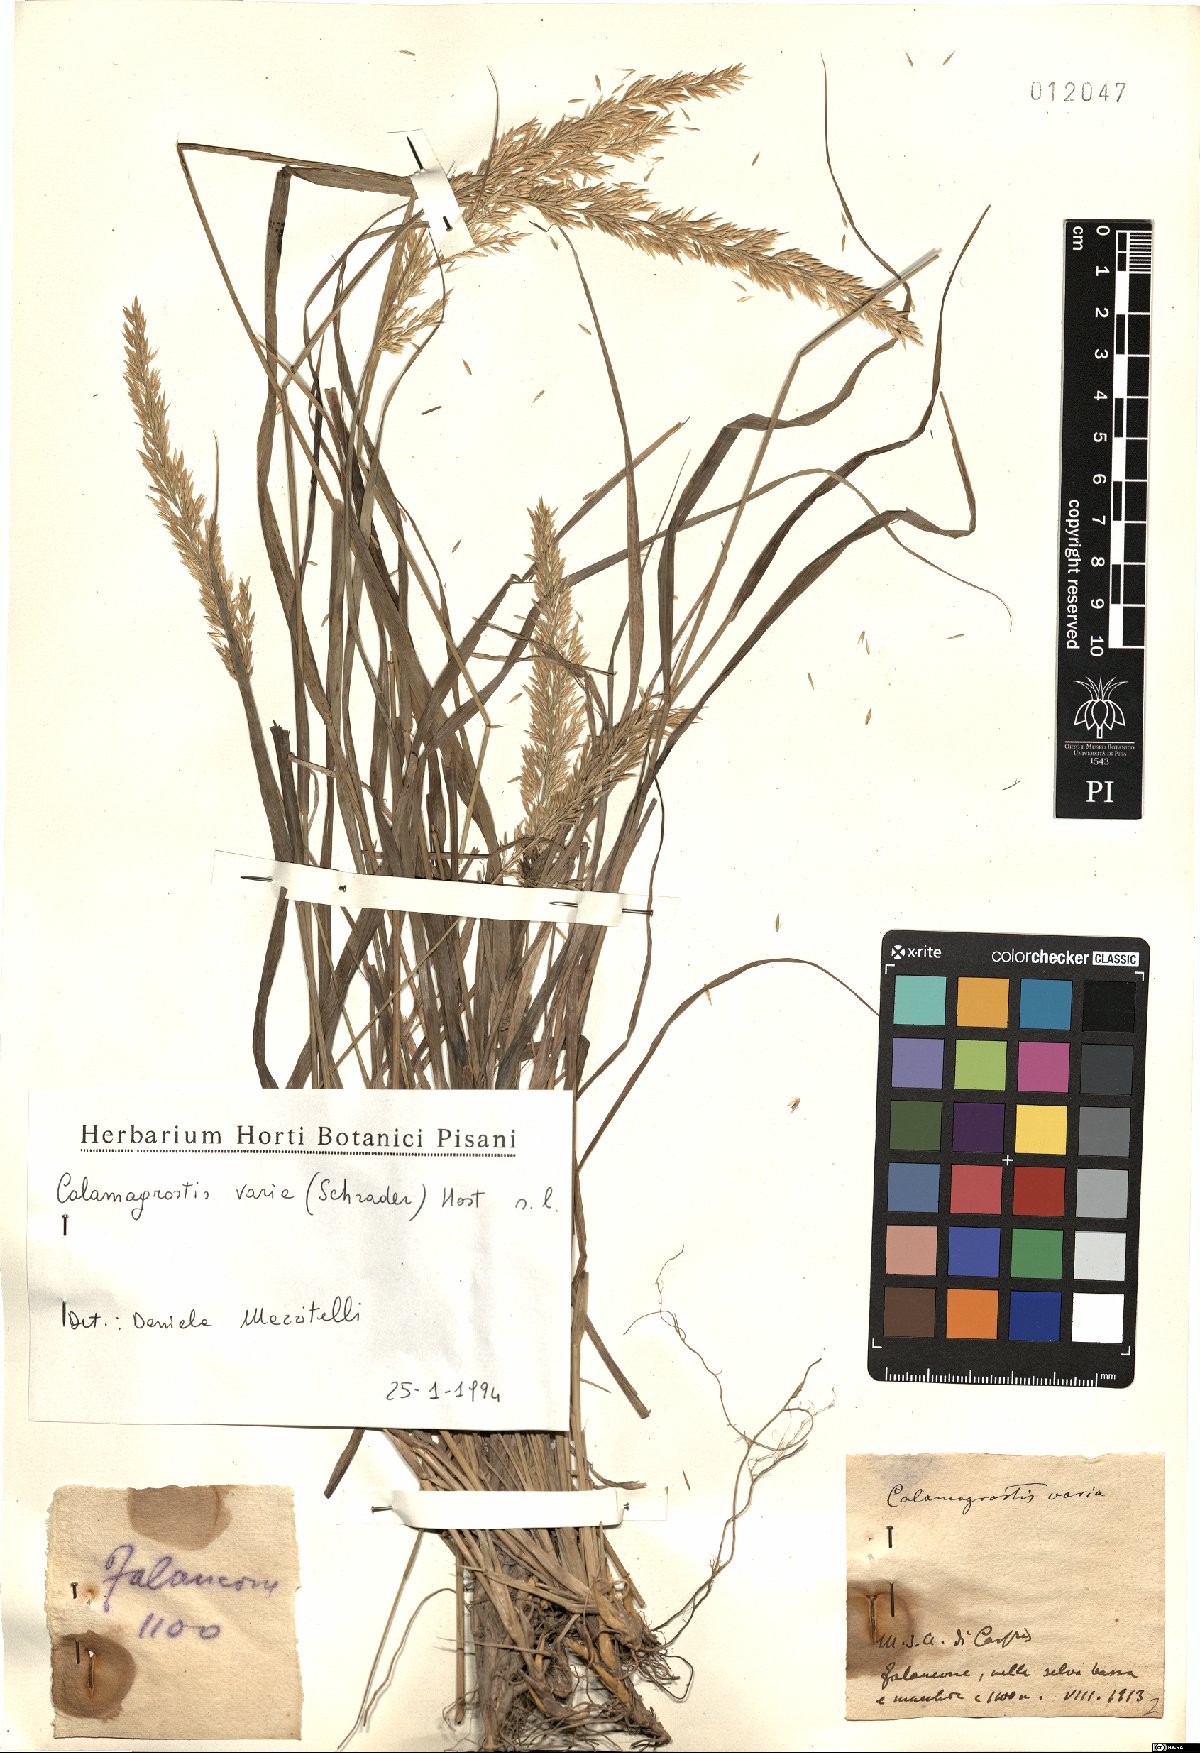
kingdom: Plantae
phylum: Tracheophyta
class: Liliopsida
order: Poales
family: Poaceae
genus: Calamagrostis
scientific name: Calamagrostis varia
